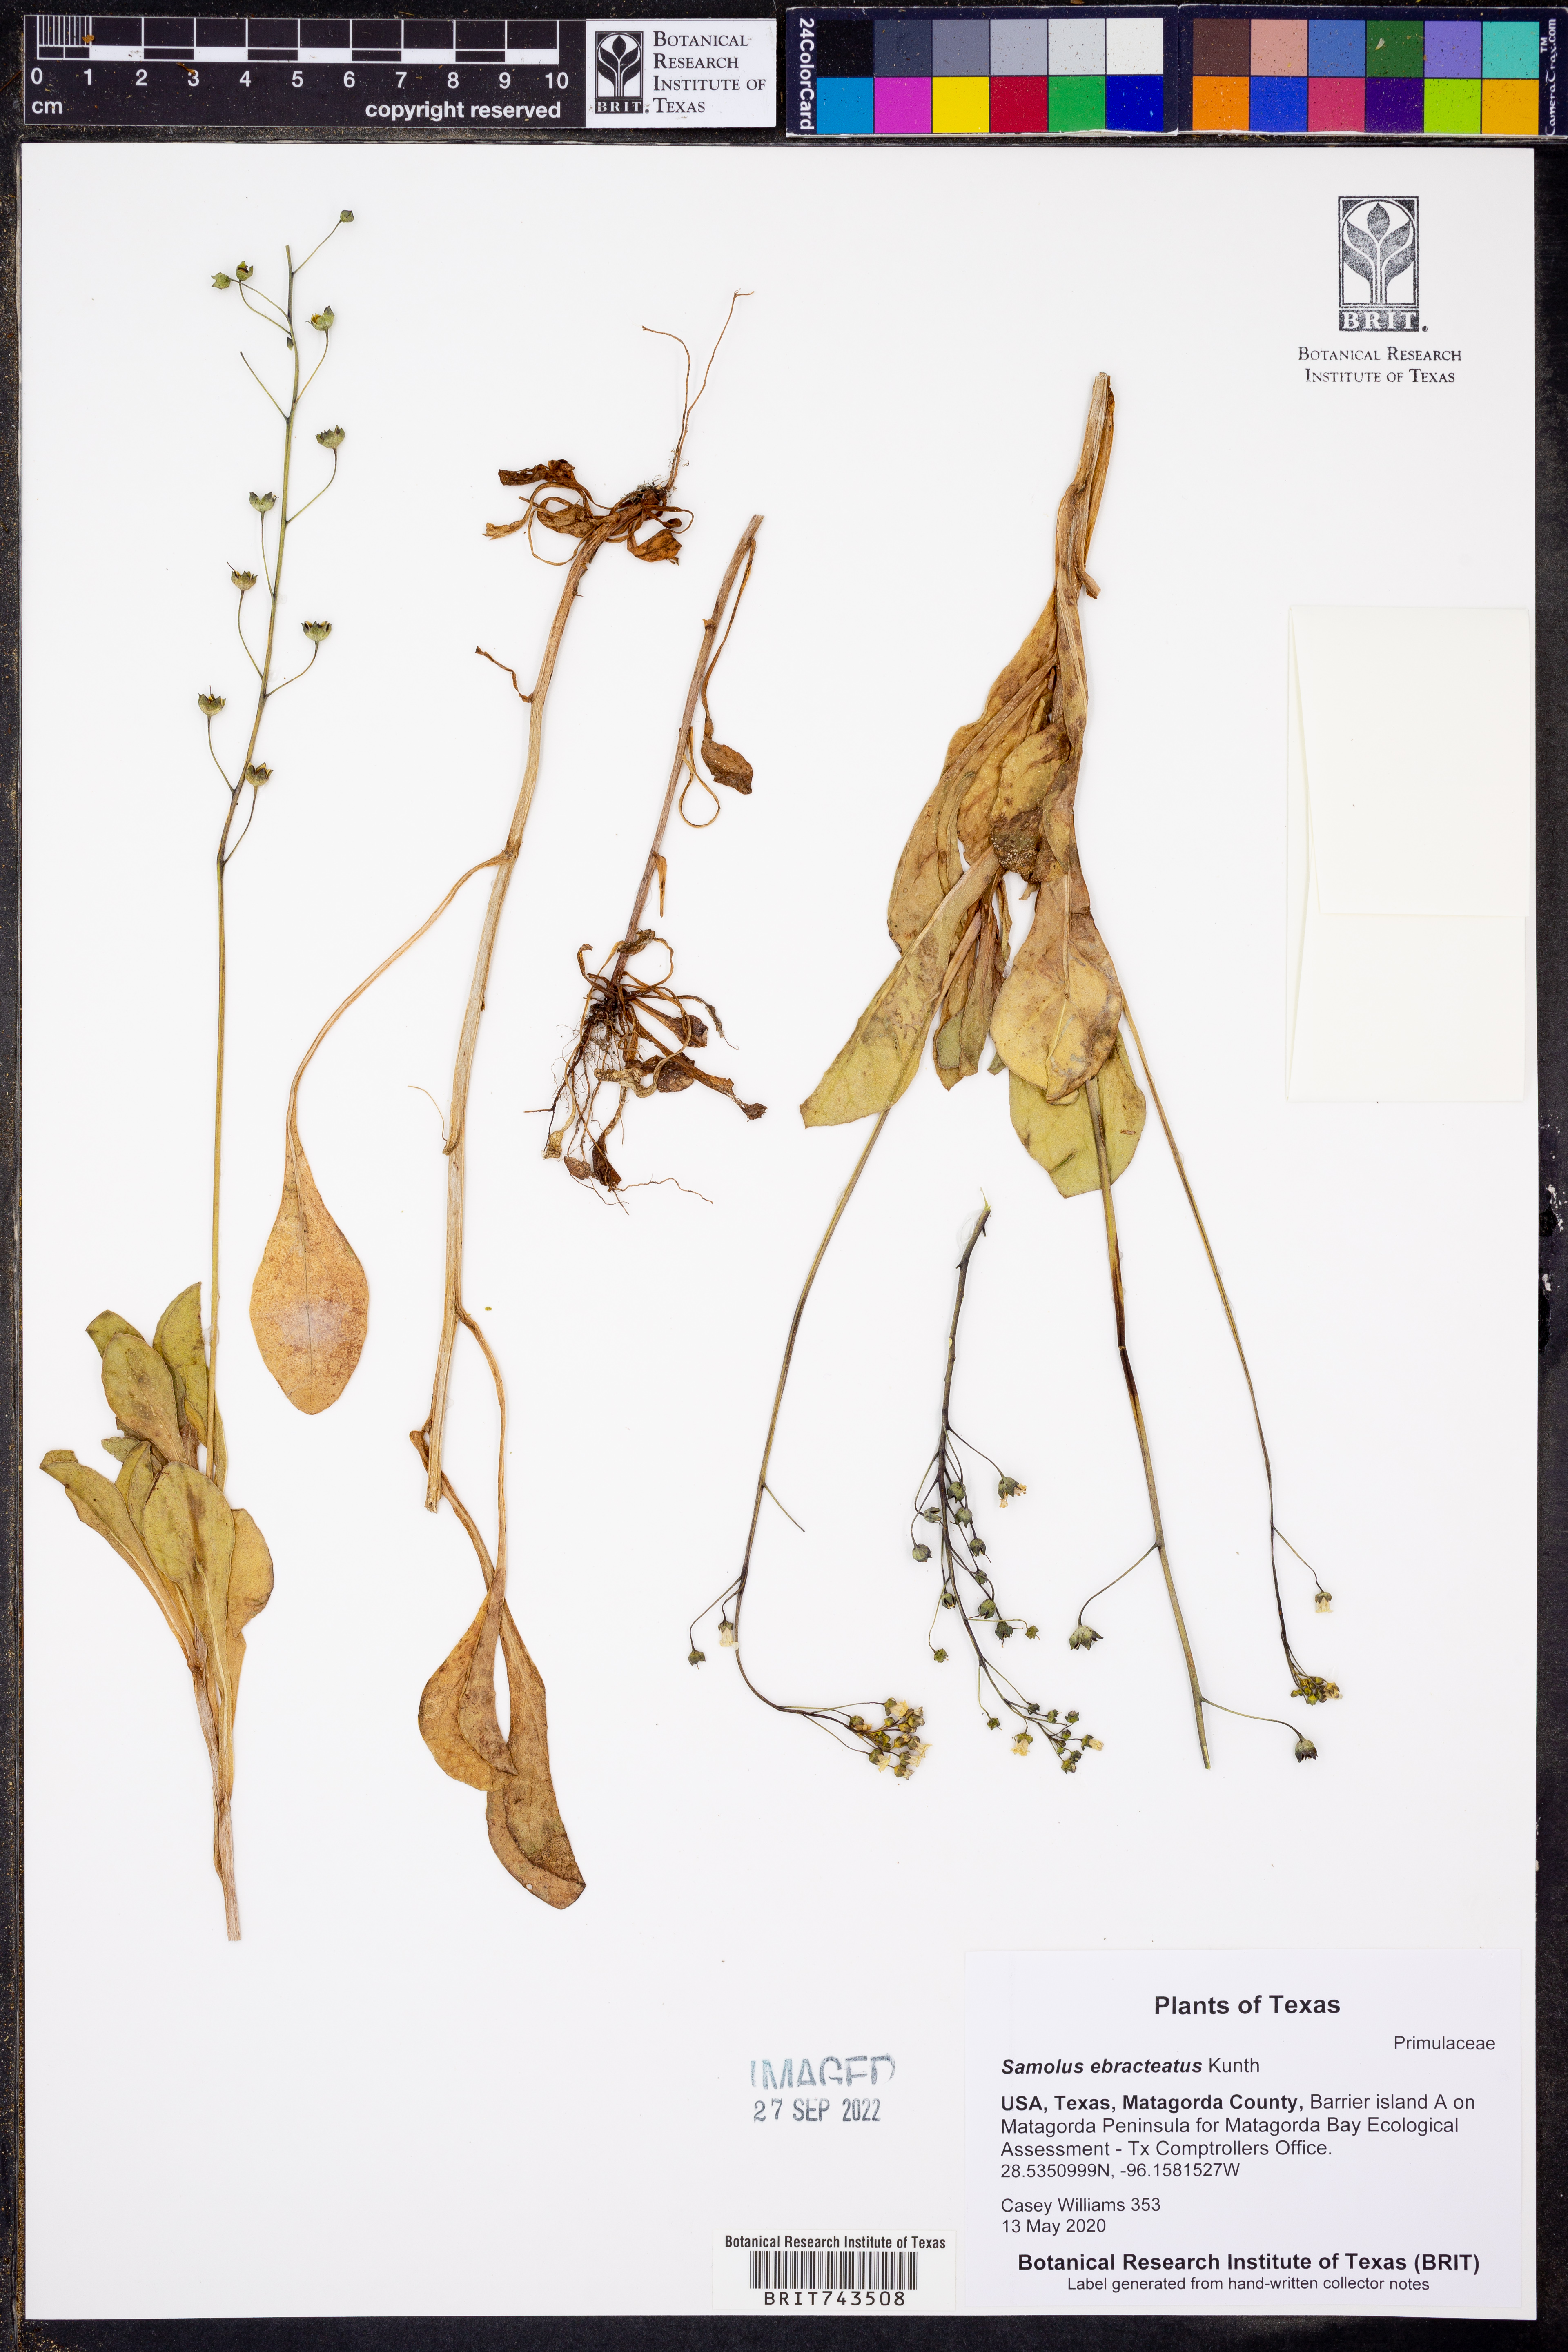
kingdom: Plantae
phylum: Tracheophyta
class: Magnoliopsida
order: Ericales
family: Primulaceae
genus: Samolus
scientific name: Samolus ebracteatus
